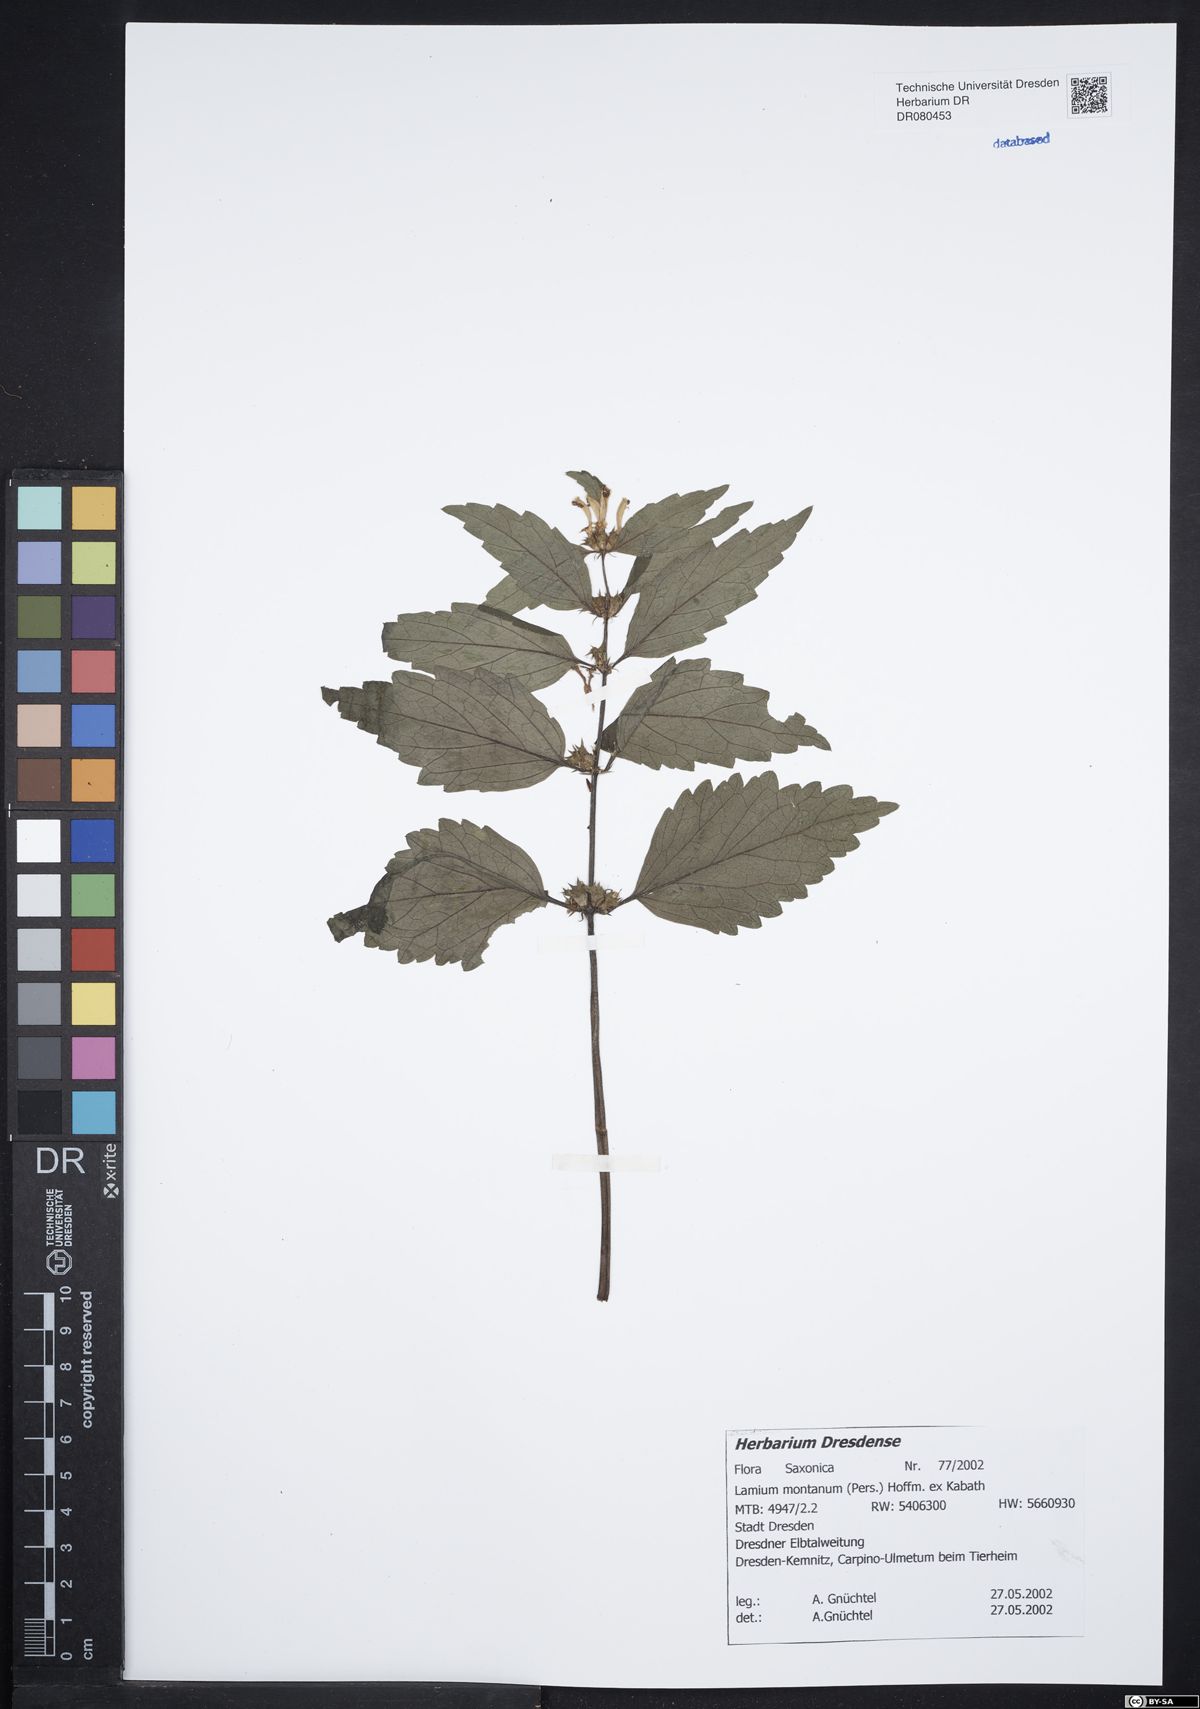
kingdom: Plantae
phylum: Tracheophyta
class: Magnoliopsida
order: Lamiales
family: Lamiaceae
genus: Lamium
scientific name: Lamium galeobdolon
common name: Yellow archangel
